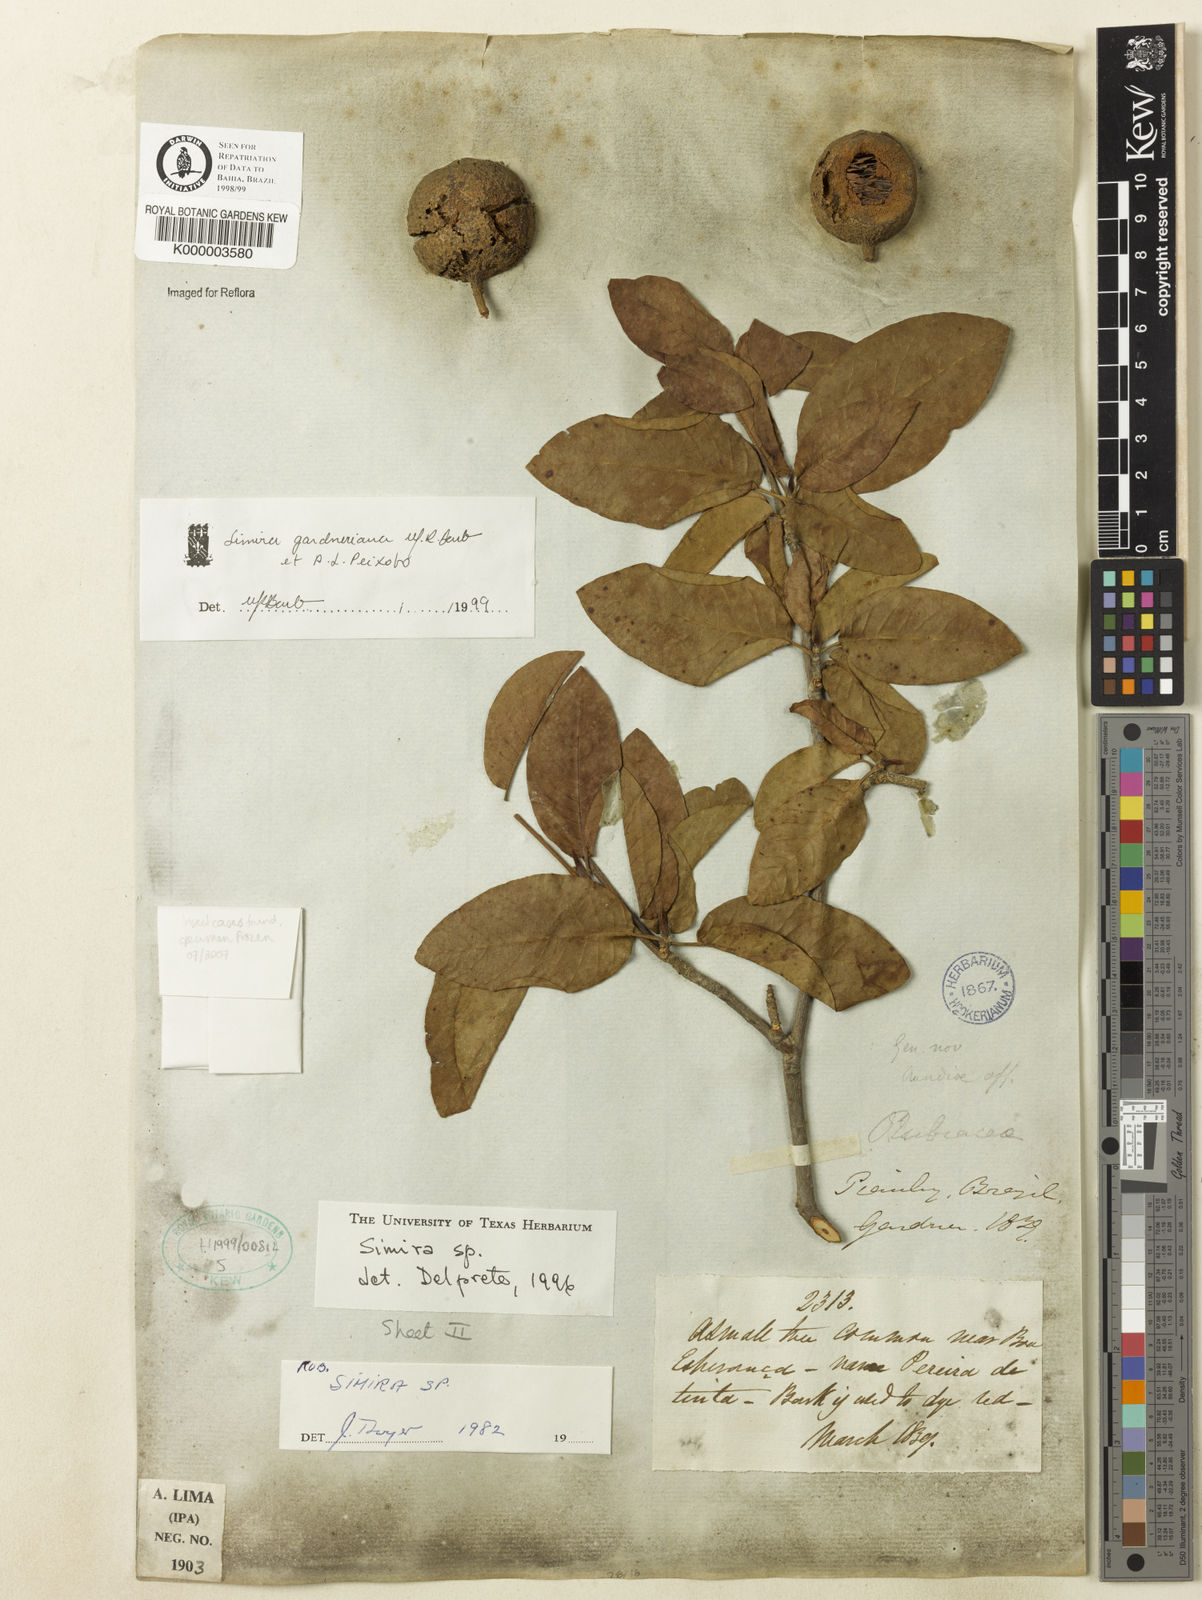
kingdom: Plantae
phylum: Tracheophyta
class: Magnoliopsida
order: Gentianales
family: Rubiaceae
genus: Simira
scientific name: Simira gardneriana
